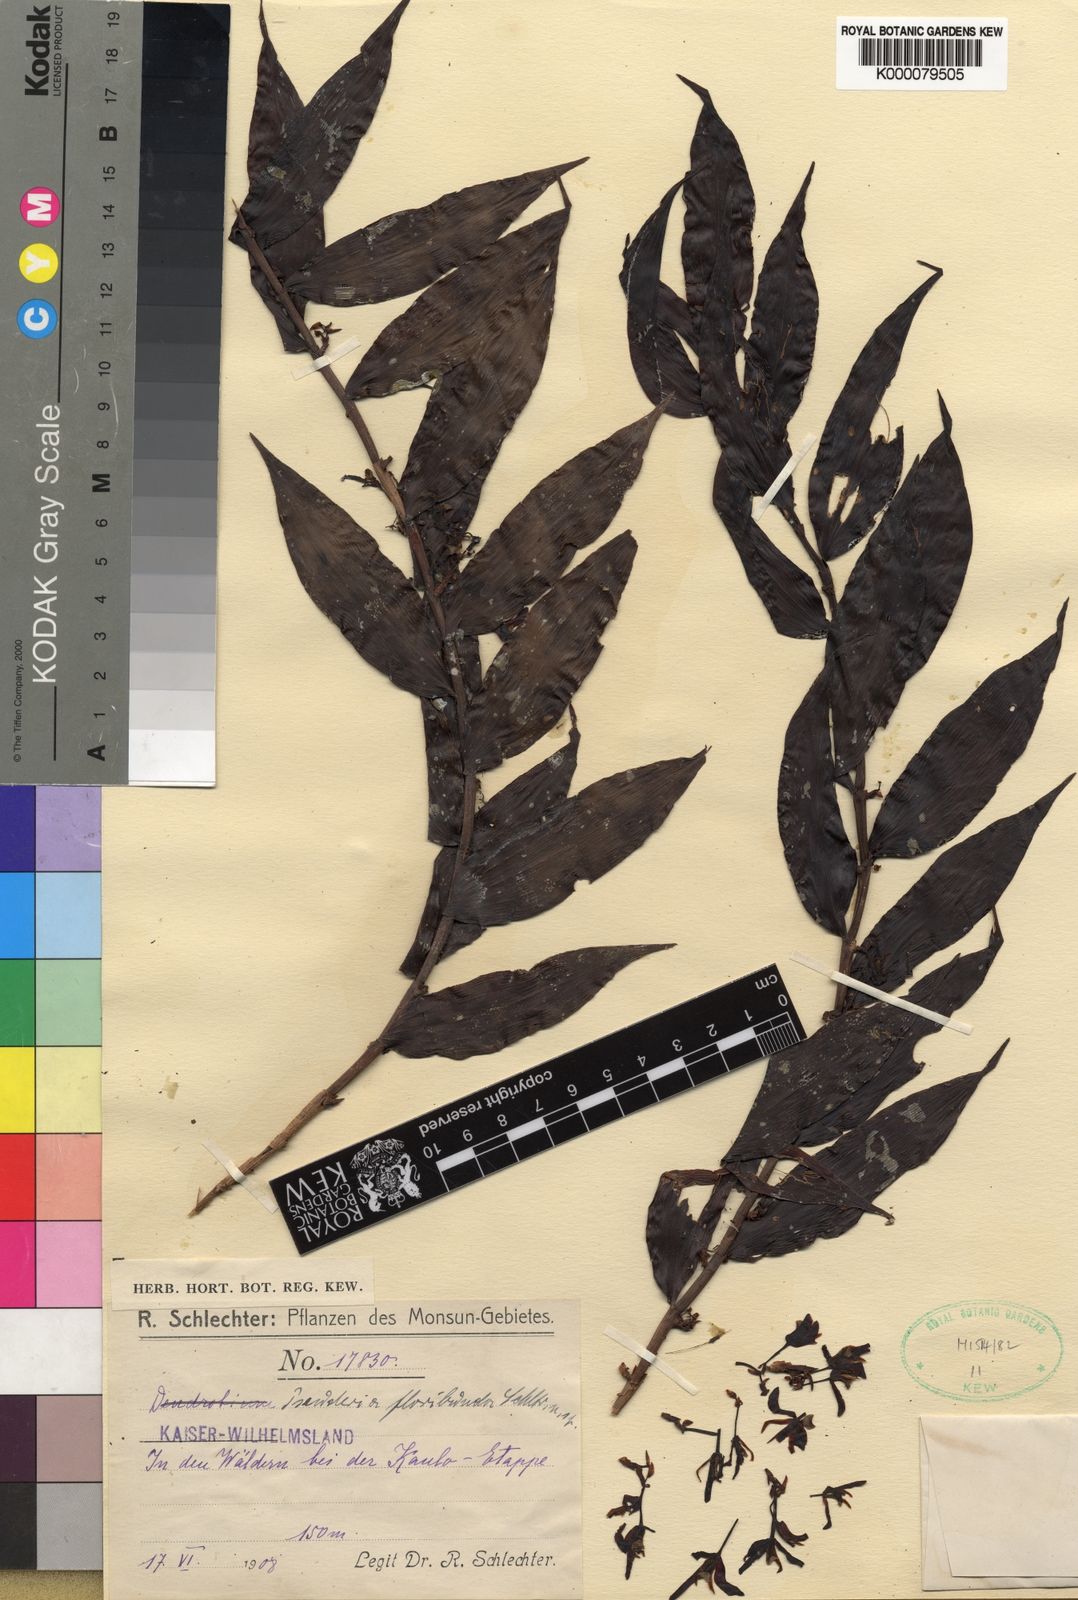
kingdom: Plantae
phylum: Tracheophyta
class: Liliopsida
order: Asparagales
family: Orchidaceae
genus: Pseuderia
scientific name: Pseuderia floribunda
